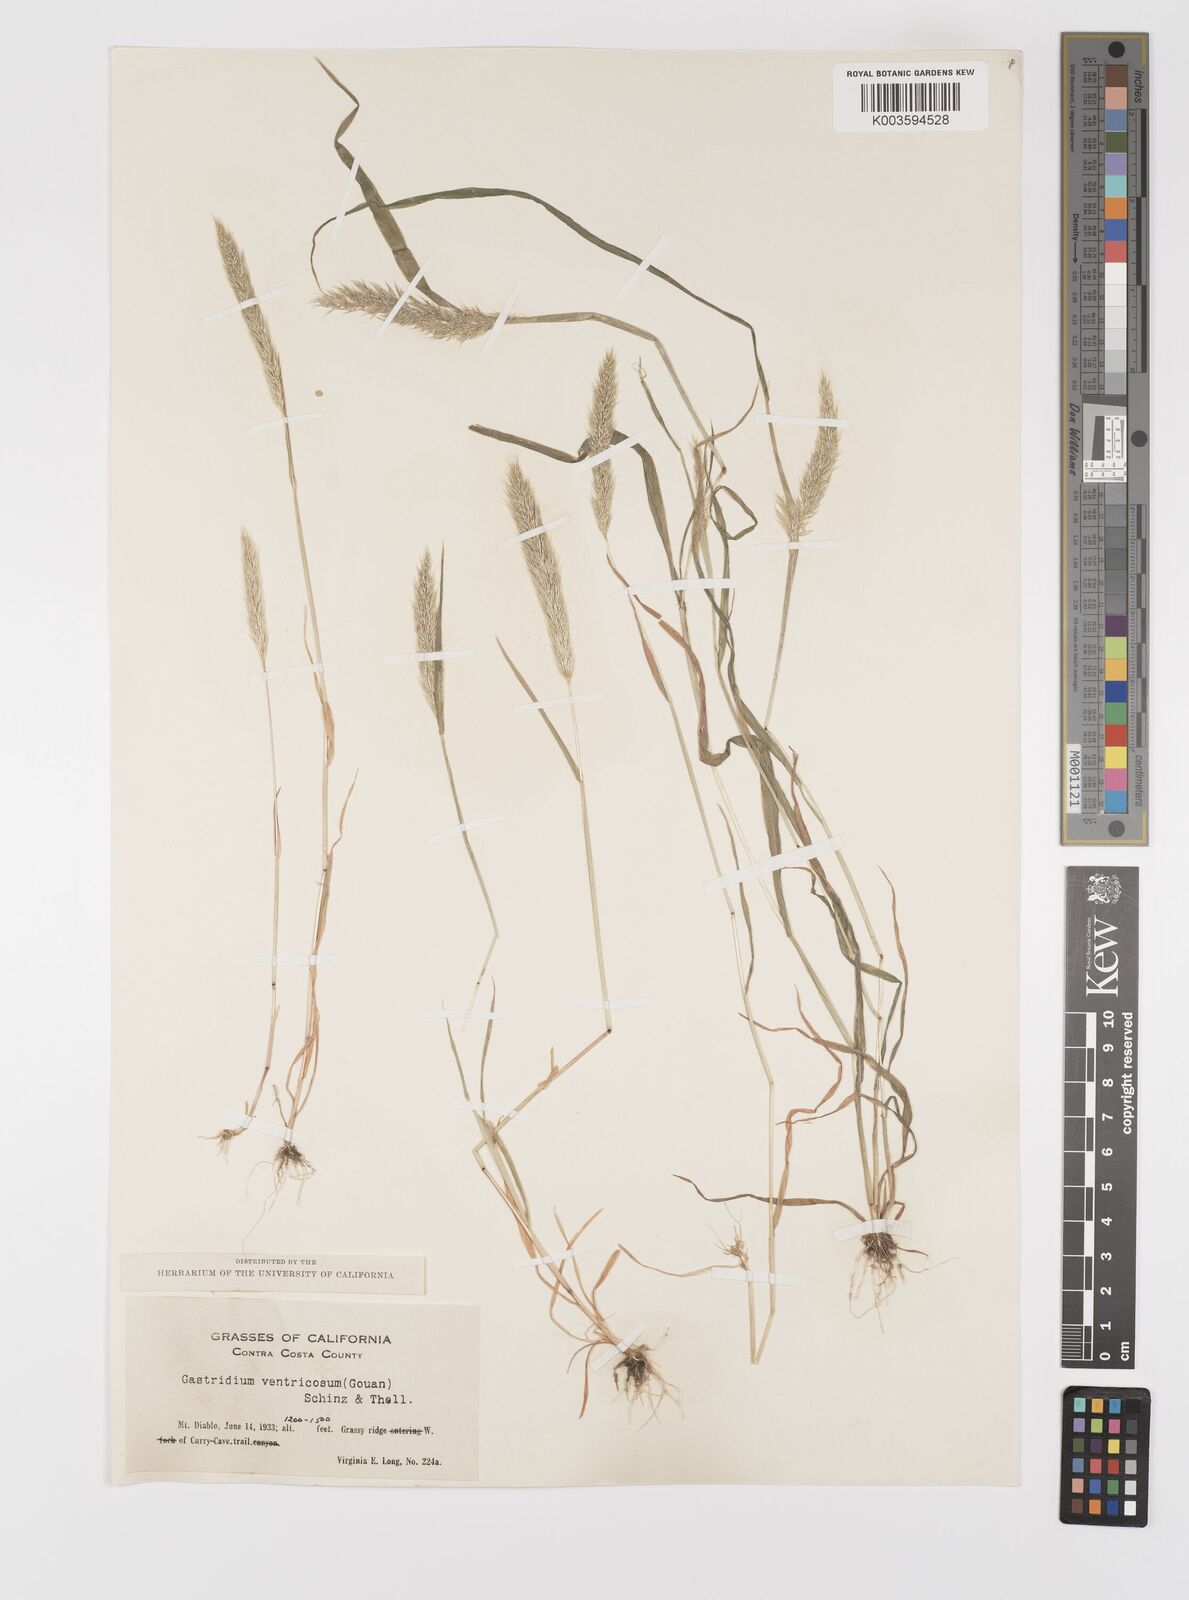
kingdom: Plantae
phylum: Tracheophyta
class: Liliopsida
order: Poales
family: Poaceae
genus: Gastridium
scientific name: Gastridium phleoides
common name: Nit grass
